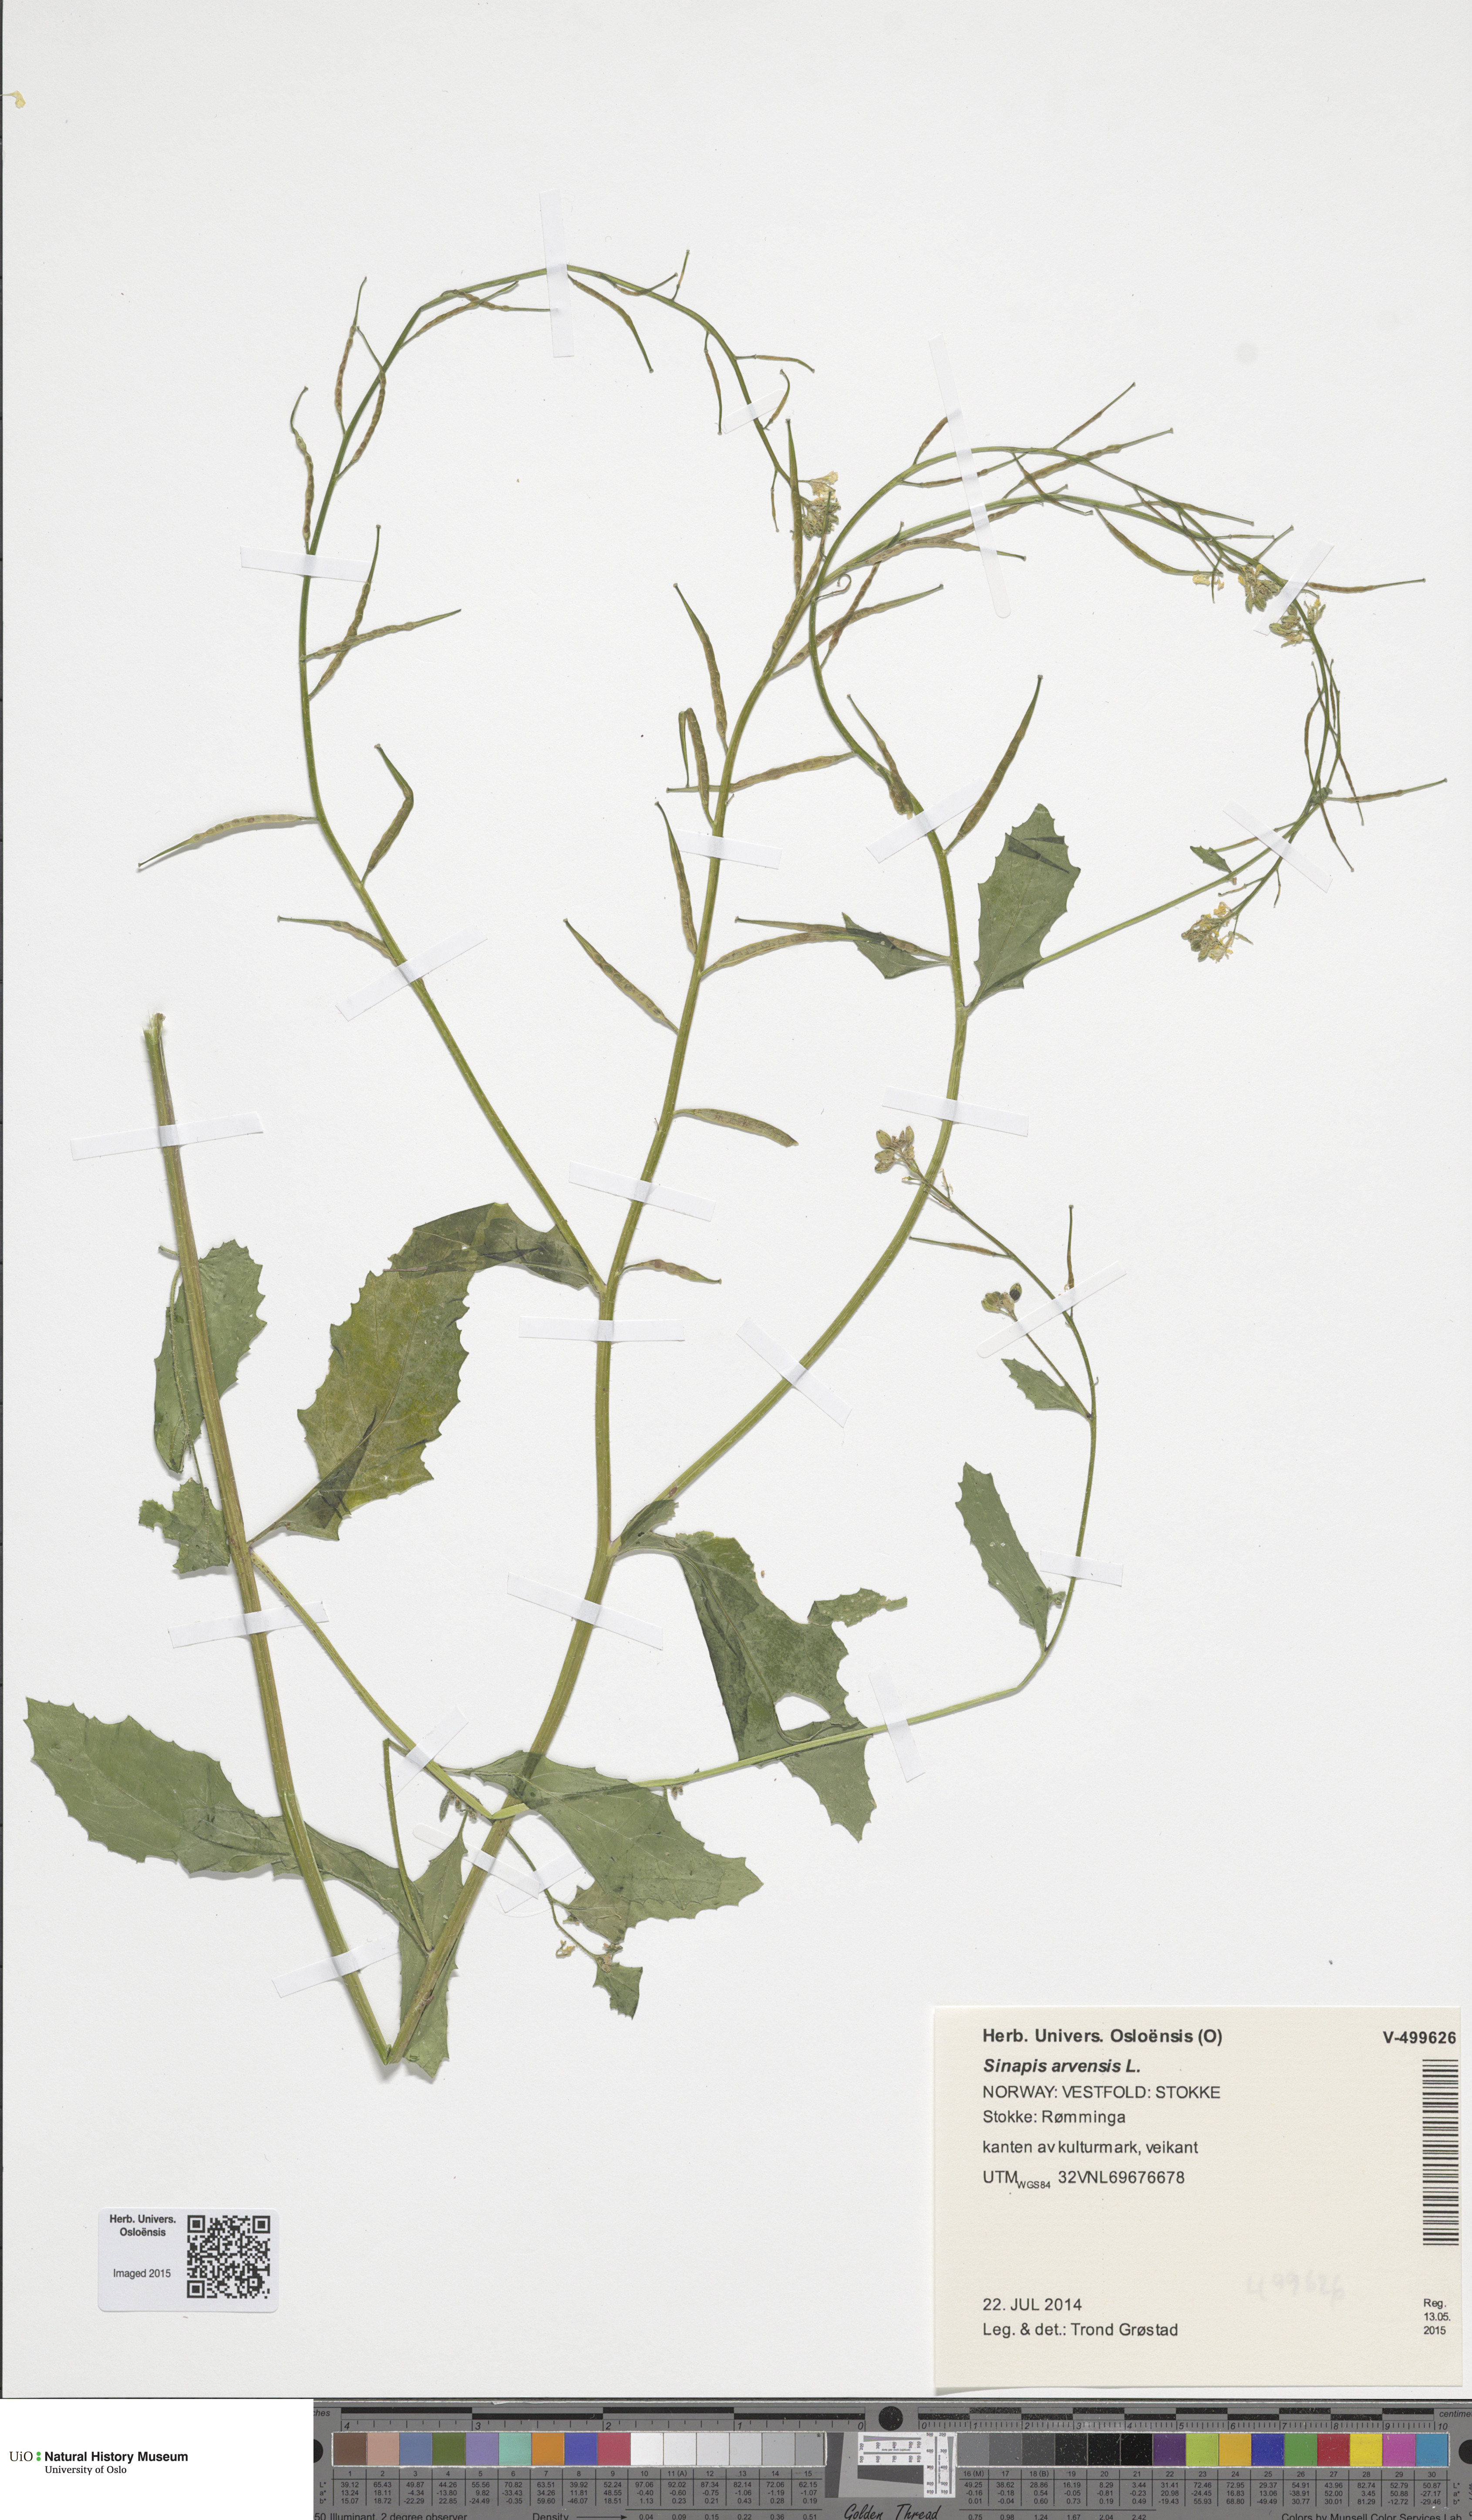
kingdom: Plantae
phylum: Tracheophyta
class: Magnoliopsida
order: Brassicales
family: Brassicaceae
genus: Sinapis
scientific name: Sinapis arvensis
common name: Charlock
